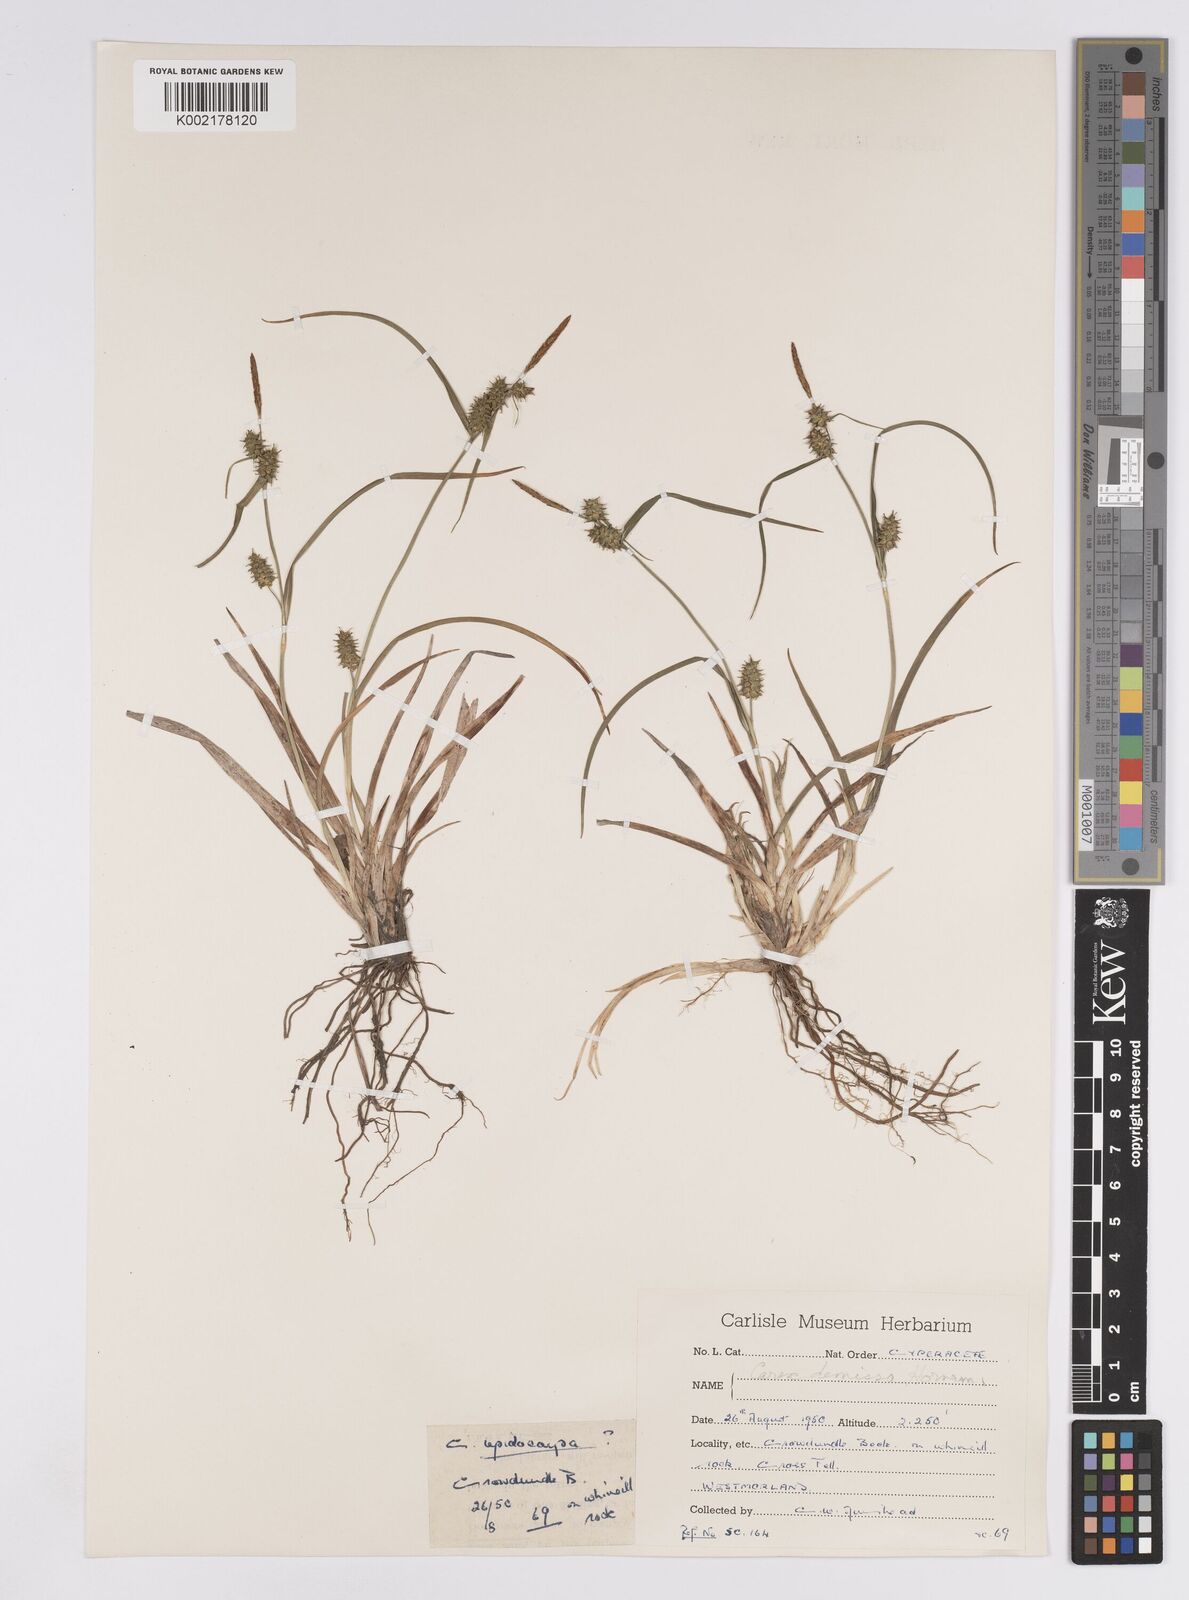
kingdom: Plantae
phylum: Tracheophyta
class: Liliopsida
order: Poales
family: Cyperaceae
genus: Carex
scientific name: Carex demissa
